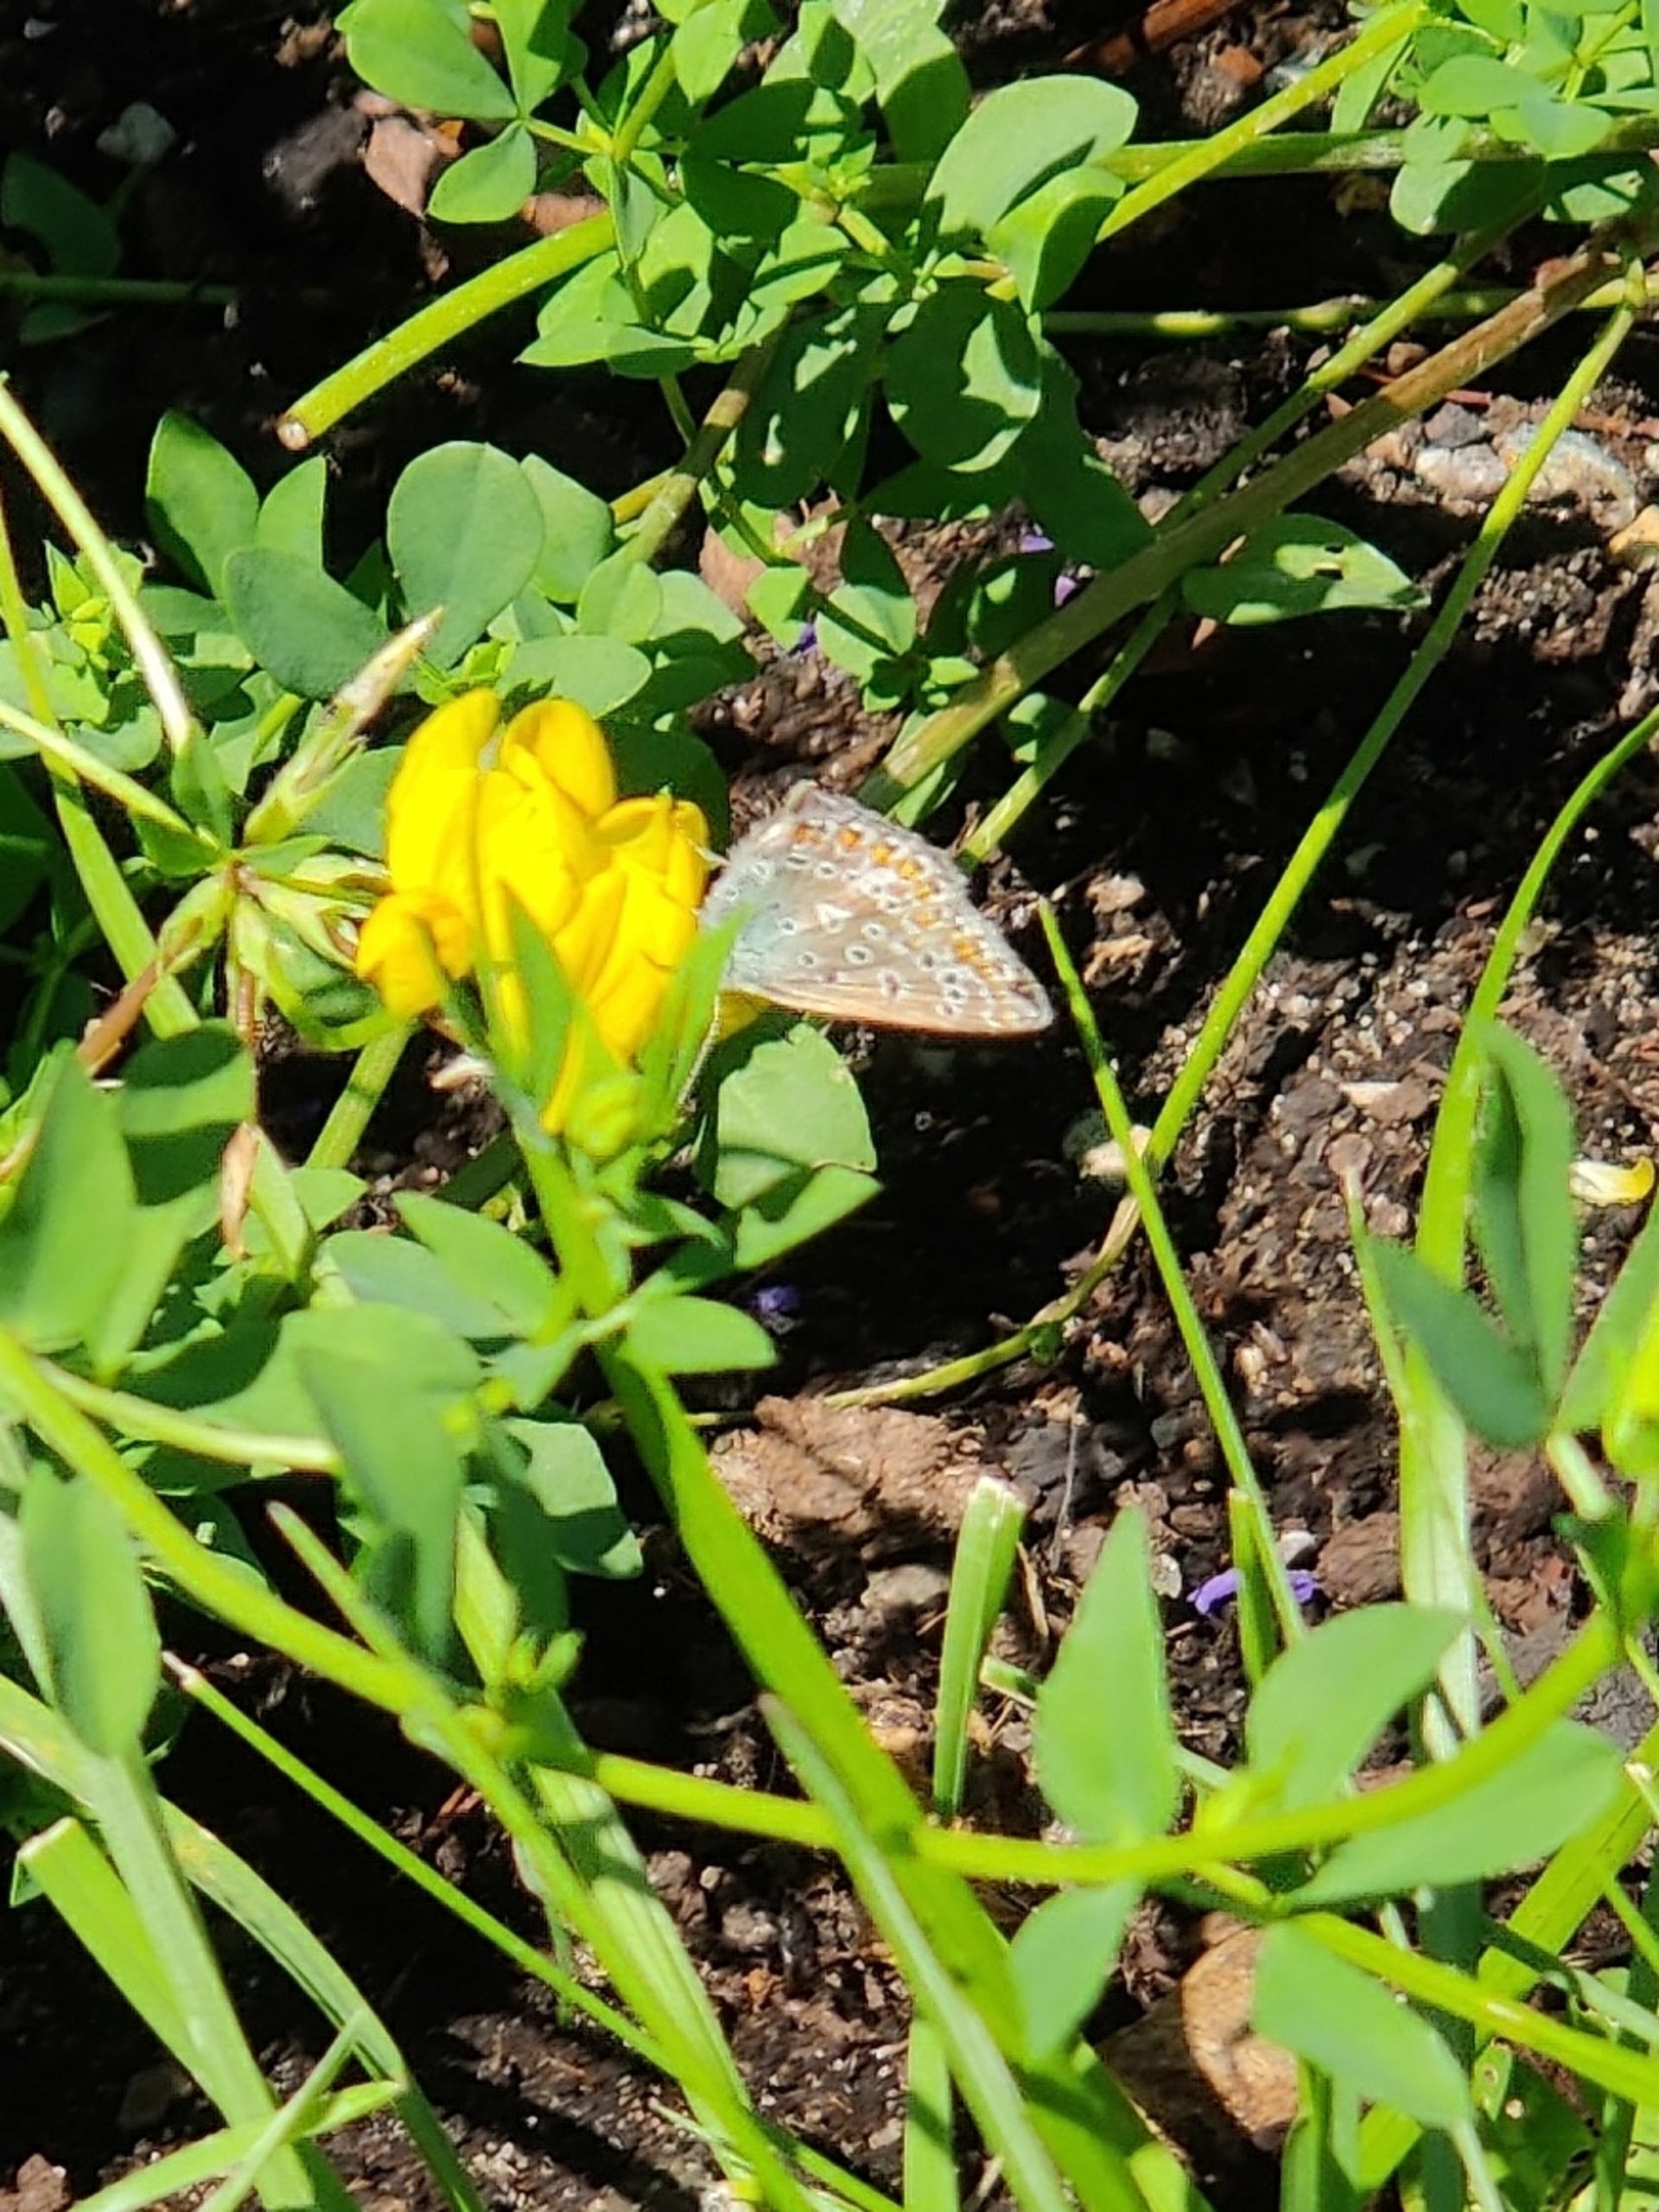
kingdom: Animalia
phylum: Arthropoda
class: Insecta
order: Lepidoptera
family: Lycaenidae
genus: Polyommatus
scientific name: Polyommatus icarus
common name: Almindelig blåfugl
